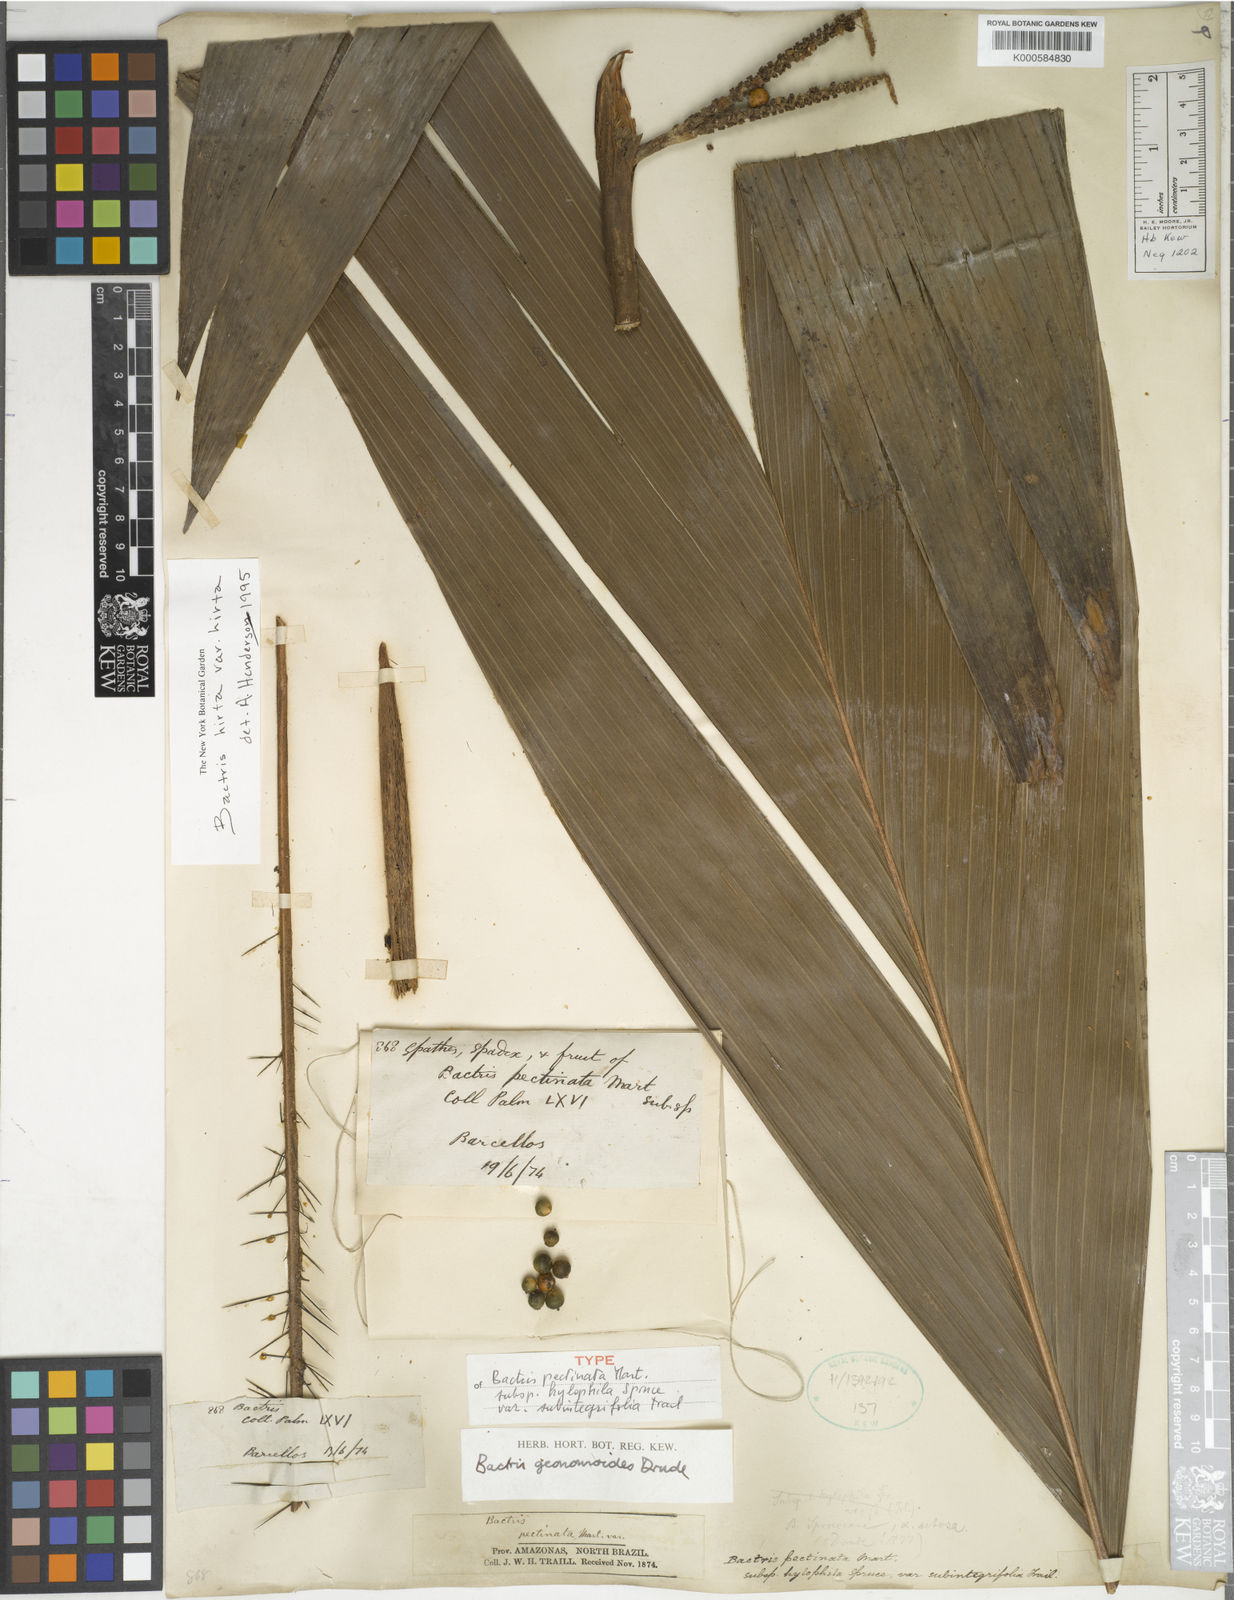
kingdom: Plantae
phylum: Tracheophyta
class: Liliopsida
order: Arecales
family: Arecaceae
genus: Bactris
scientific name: Bactris hirta
